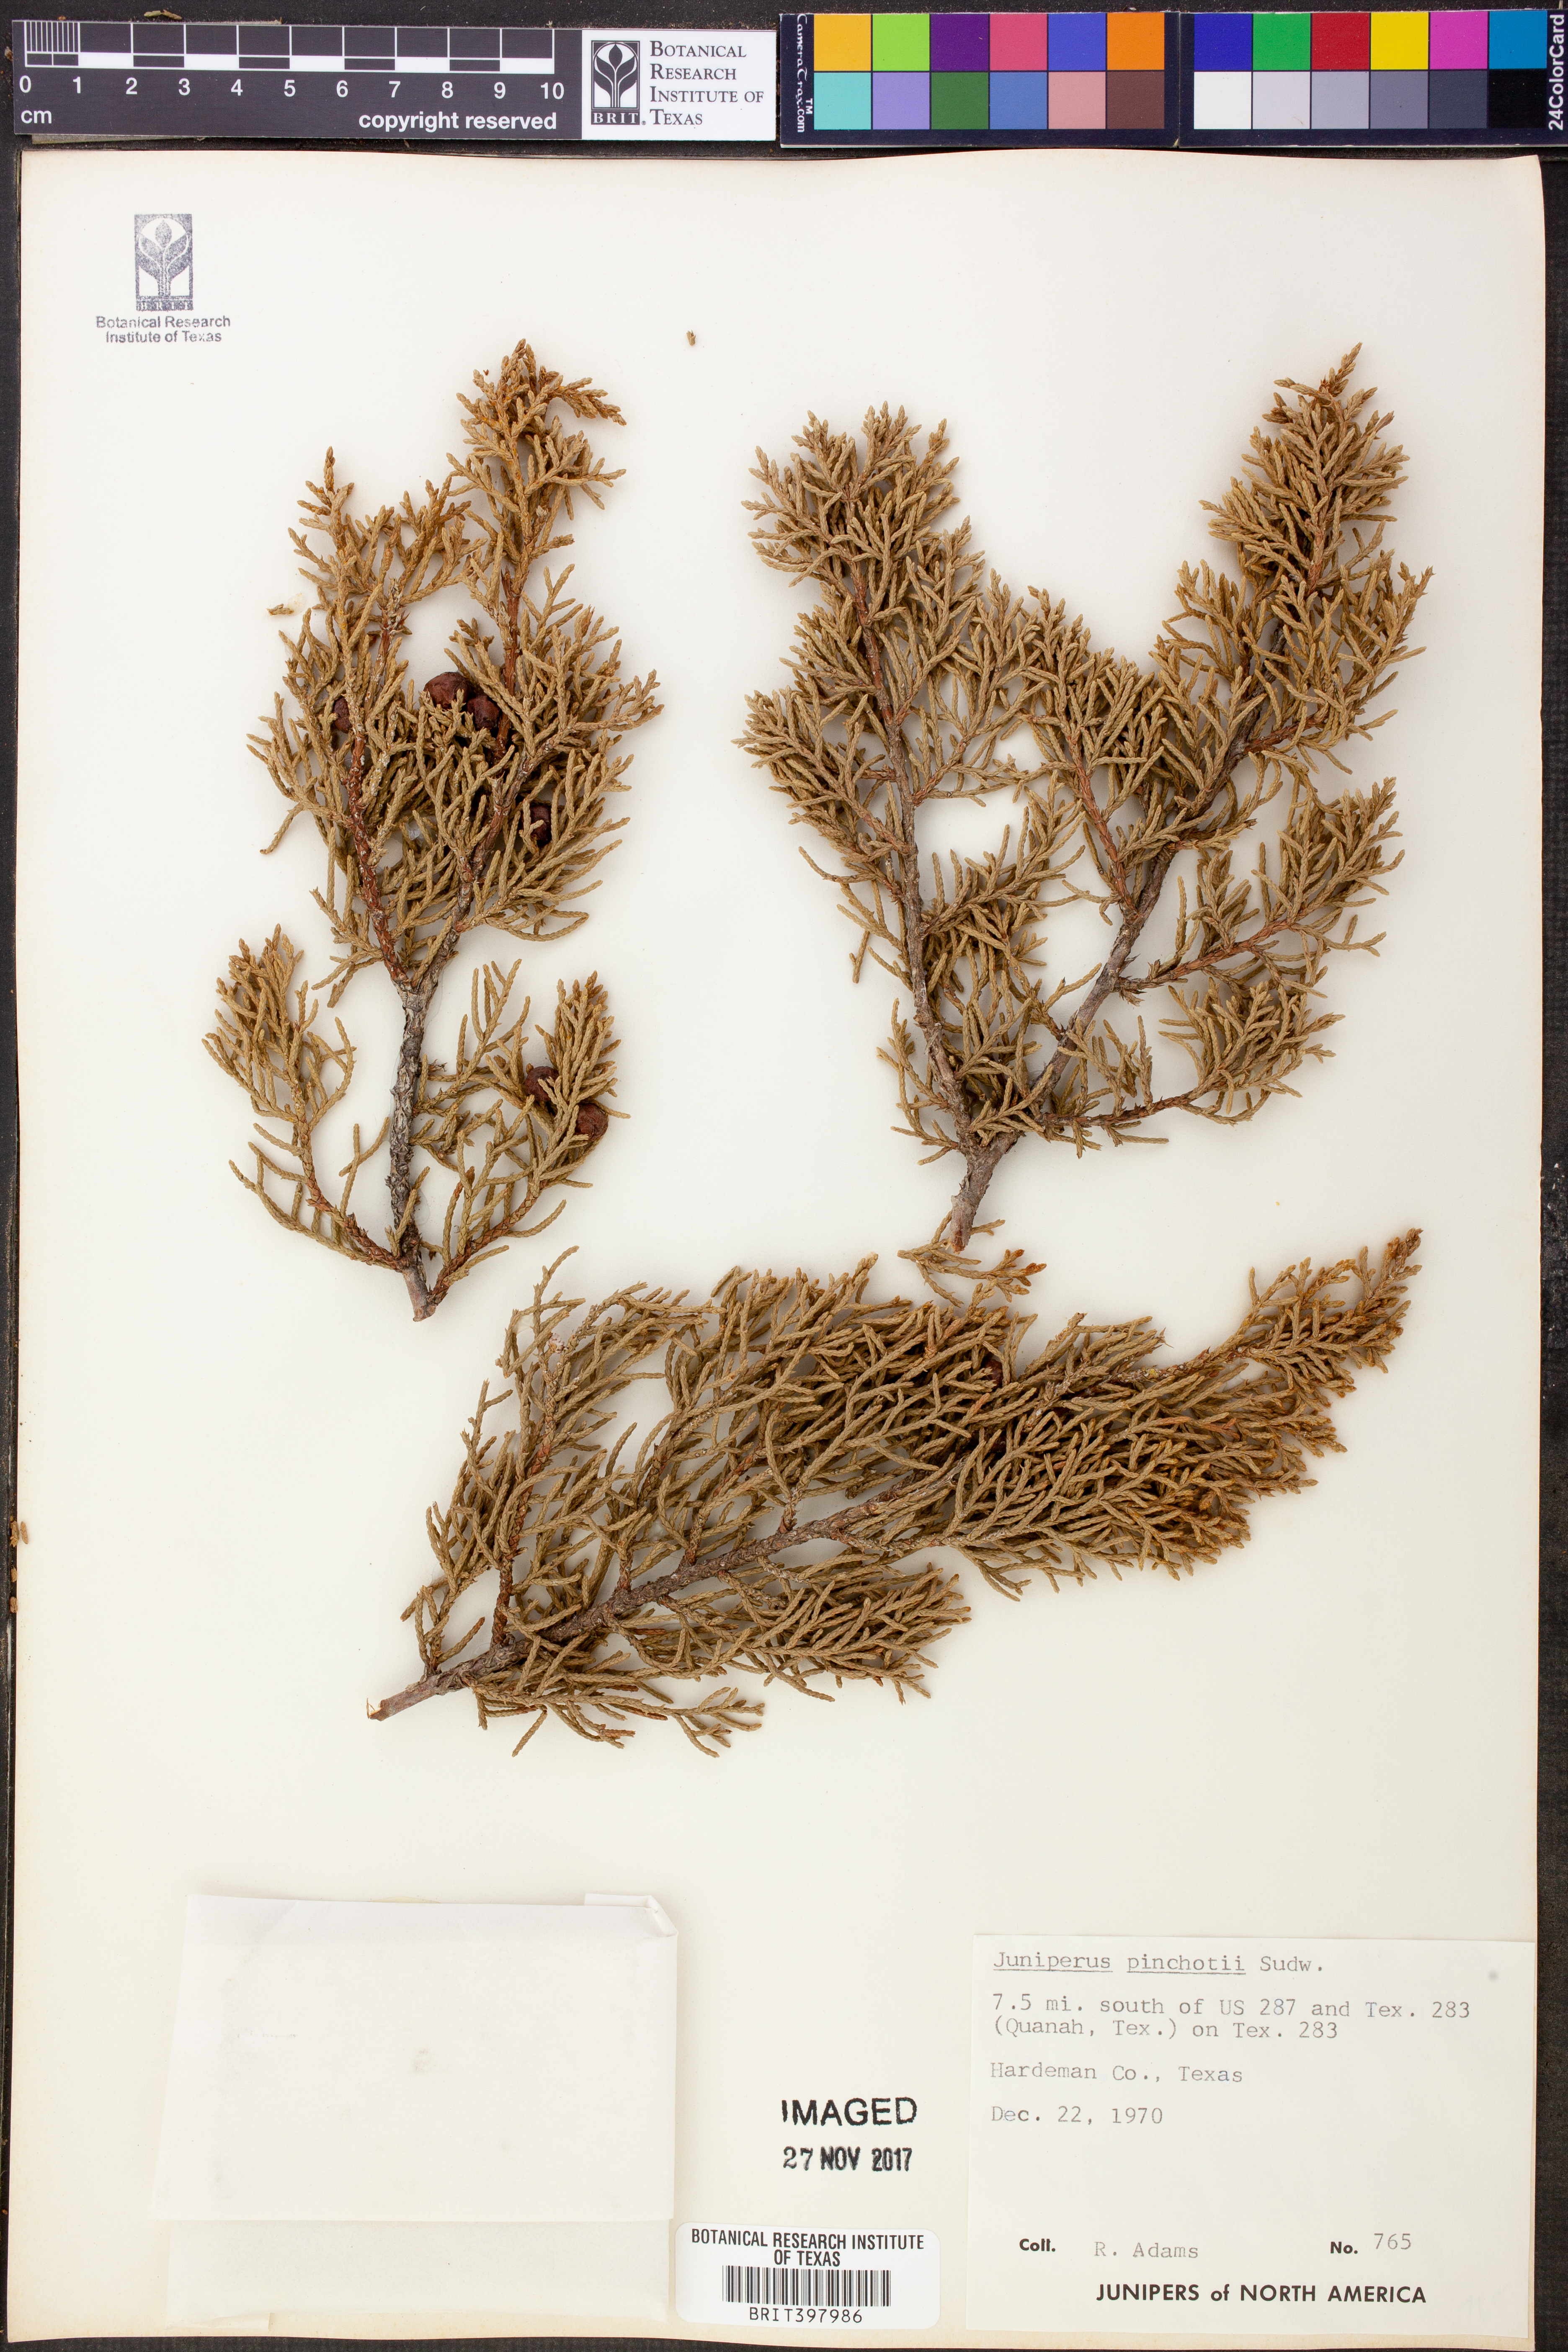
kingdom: Plantae
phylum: Tracheophyta
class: Pinopsida
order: Pinales
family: Cupressaceae
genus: Juniperus
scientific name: Juniperus pinchotii
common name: Pinchot juniper
